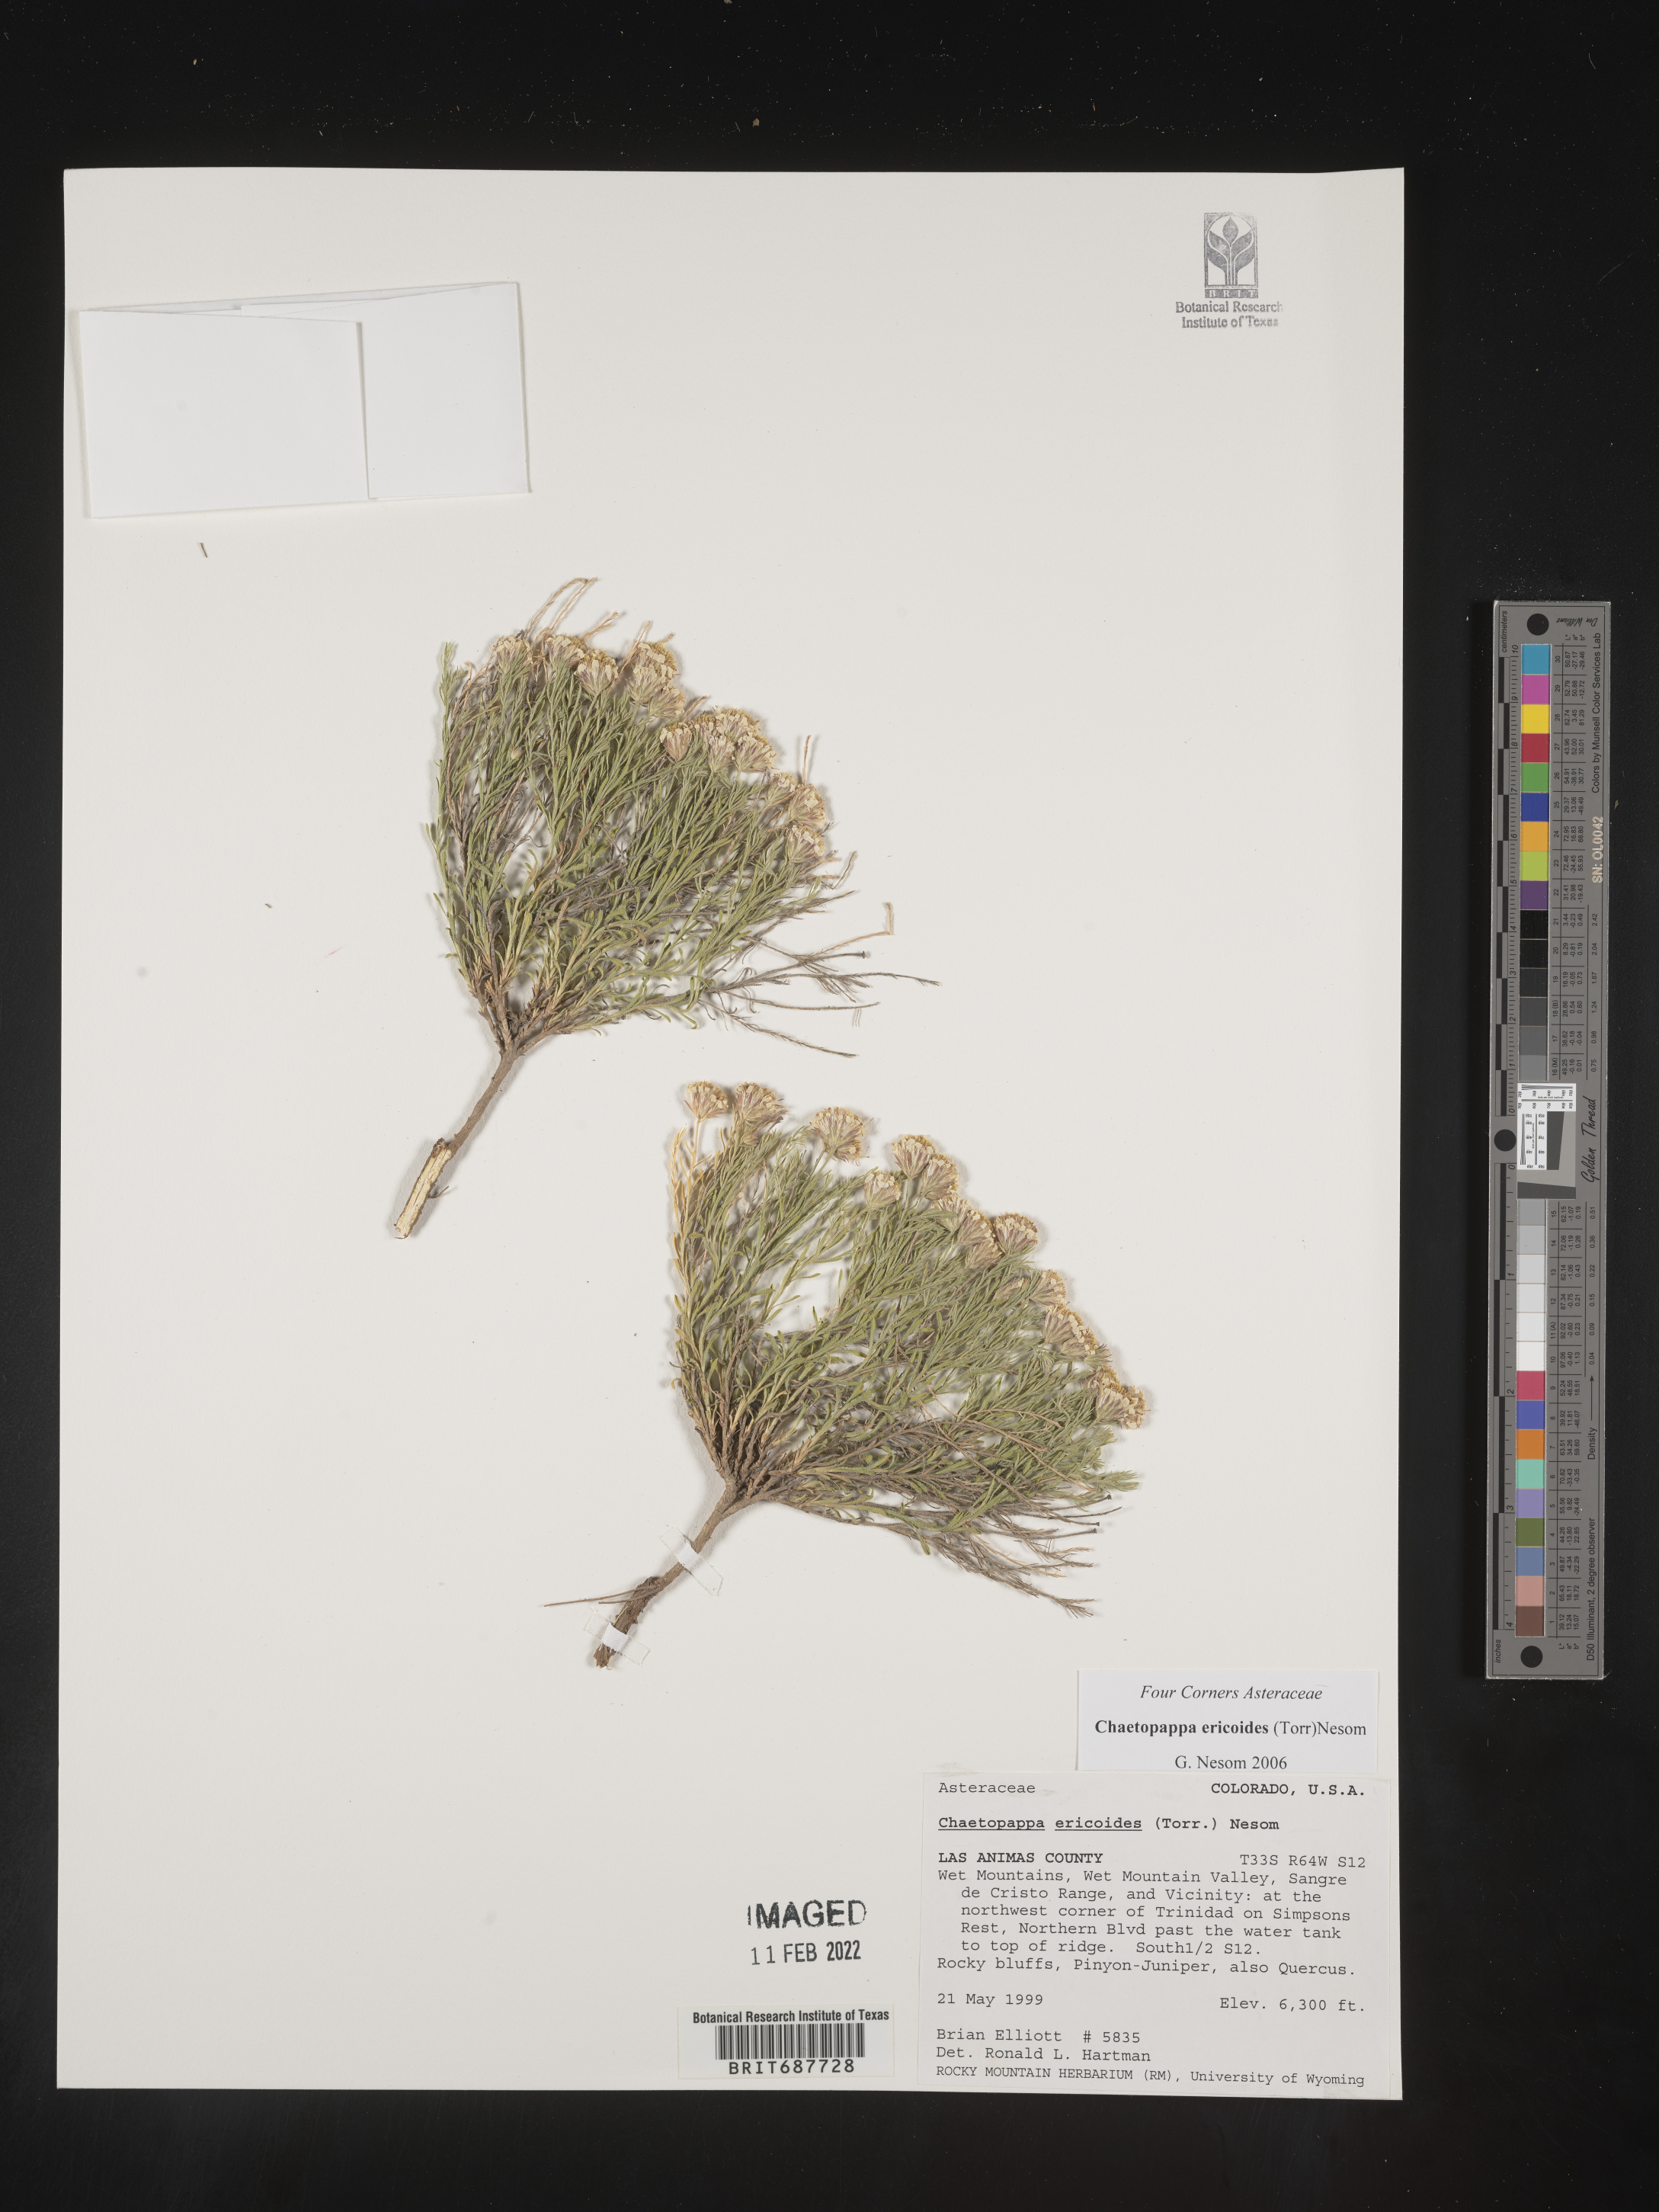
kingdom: Plantae
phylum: Tracheophyta
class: Magnoliopsida
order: Asterales
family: Asteraceae
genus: Chaetopappa
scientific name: Chaetopappa ericoides
